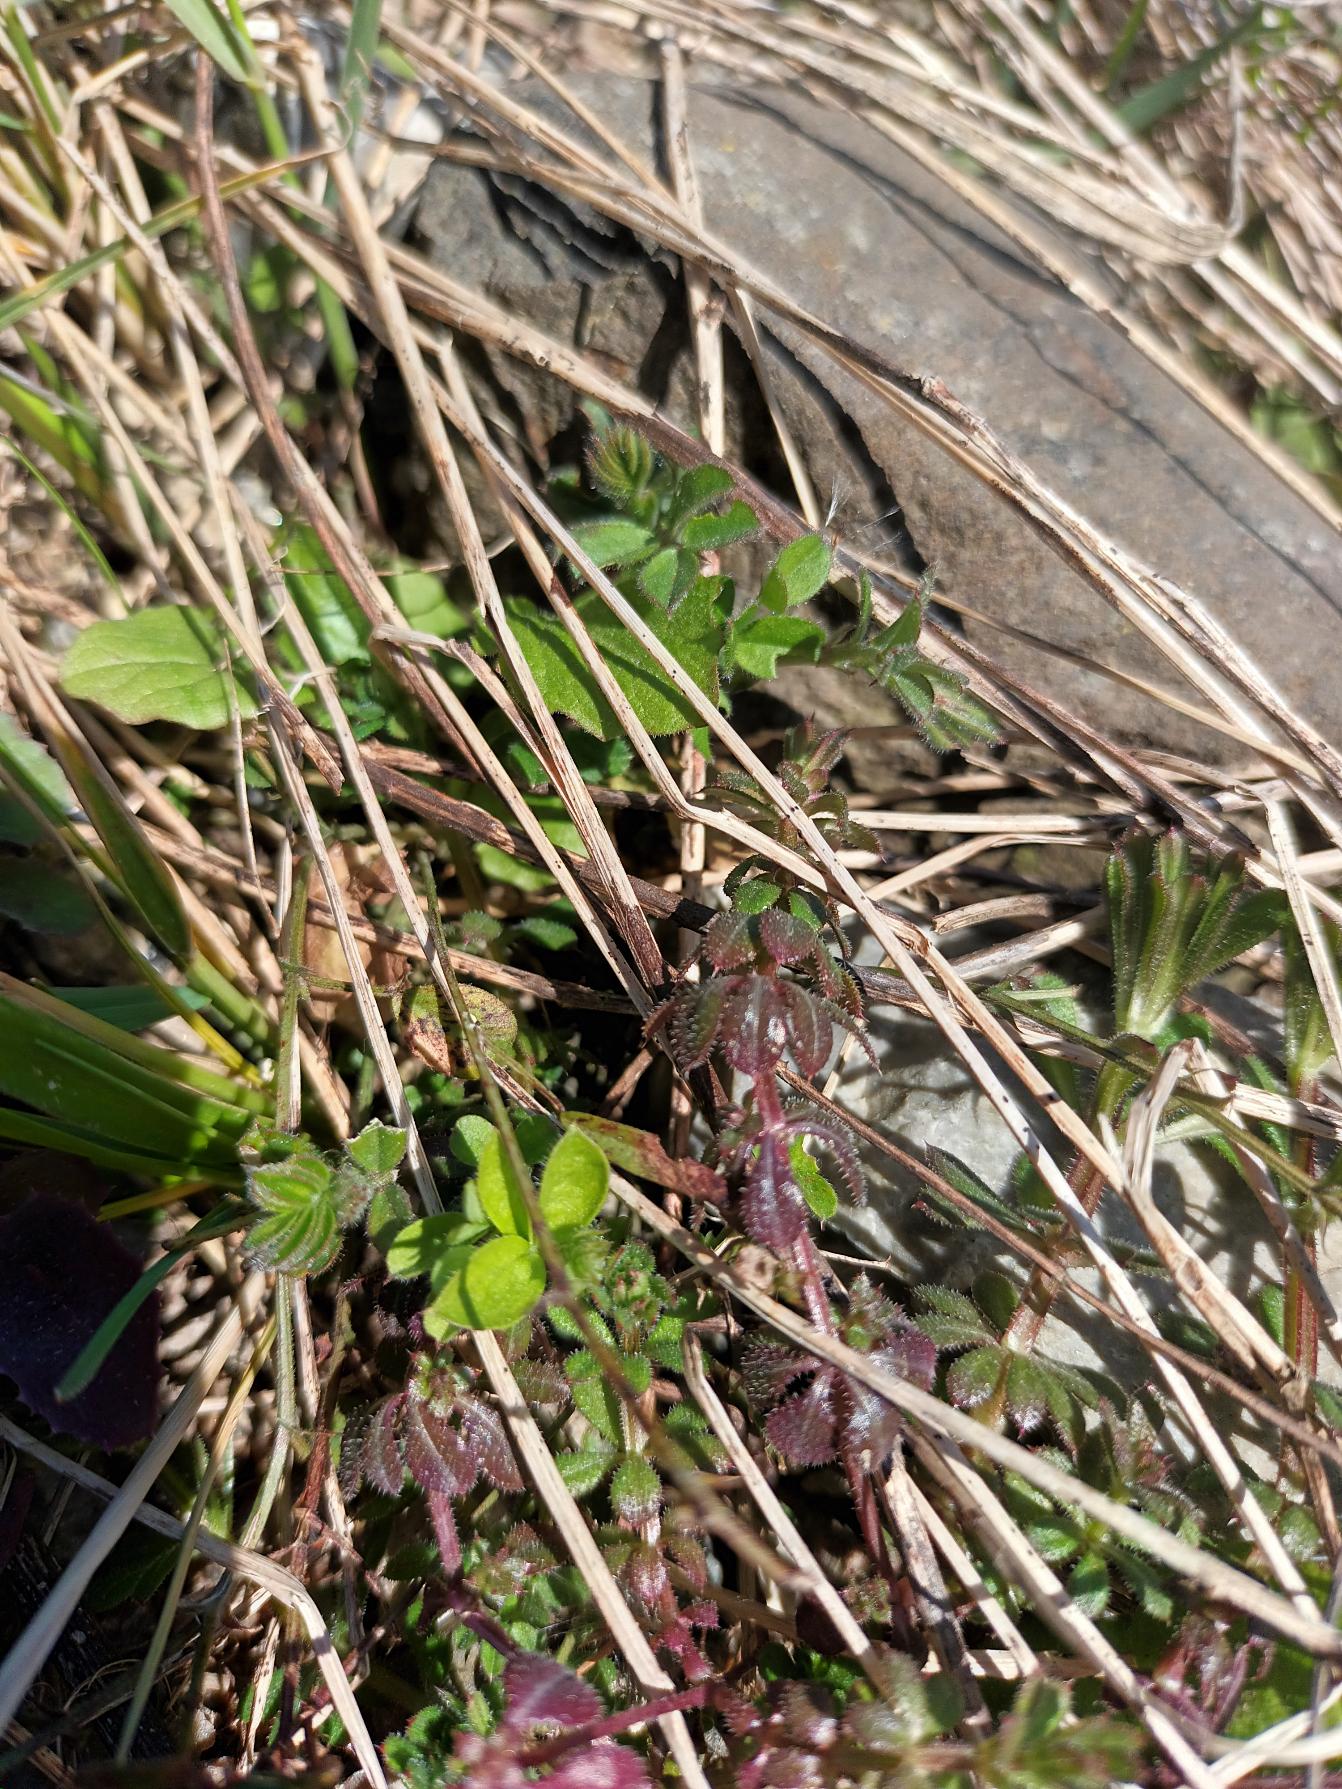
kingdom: Plantae
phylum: Tracheophyta
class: Magnoliopsida
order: Gentianales
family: Rubiaceae
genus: Galium
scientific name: Galium aparine
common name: Burre-snerre
